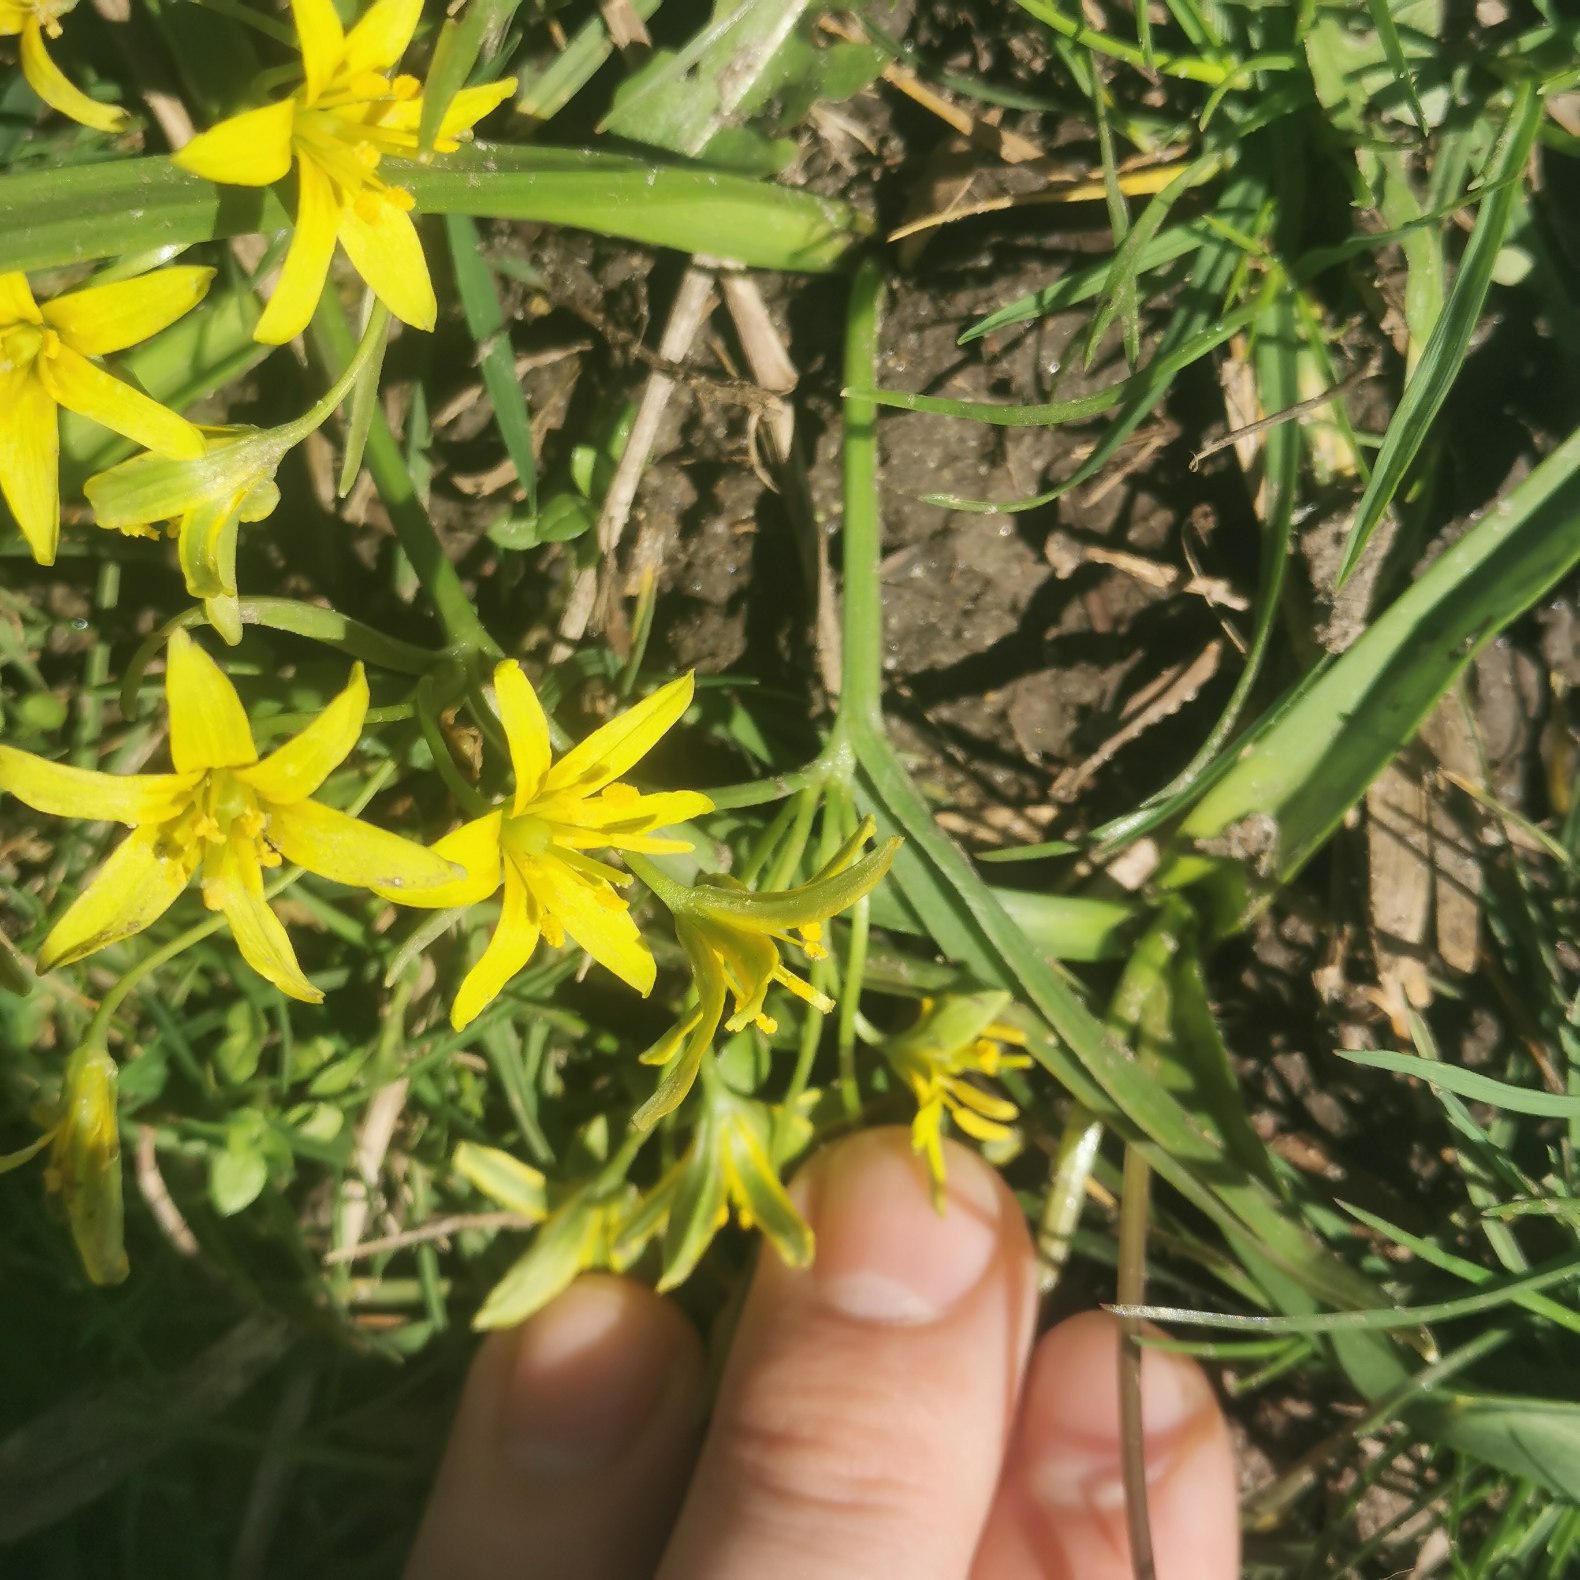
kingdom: Plantae
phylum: Tracheophyta
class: Liliopsida
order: Liliales
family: Liliaceae
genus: Gagea
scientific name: Gagea lutea
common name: Almindelig guldstjerne
